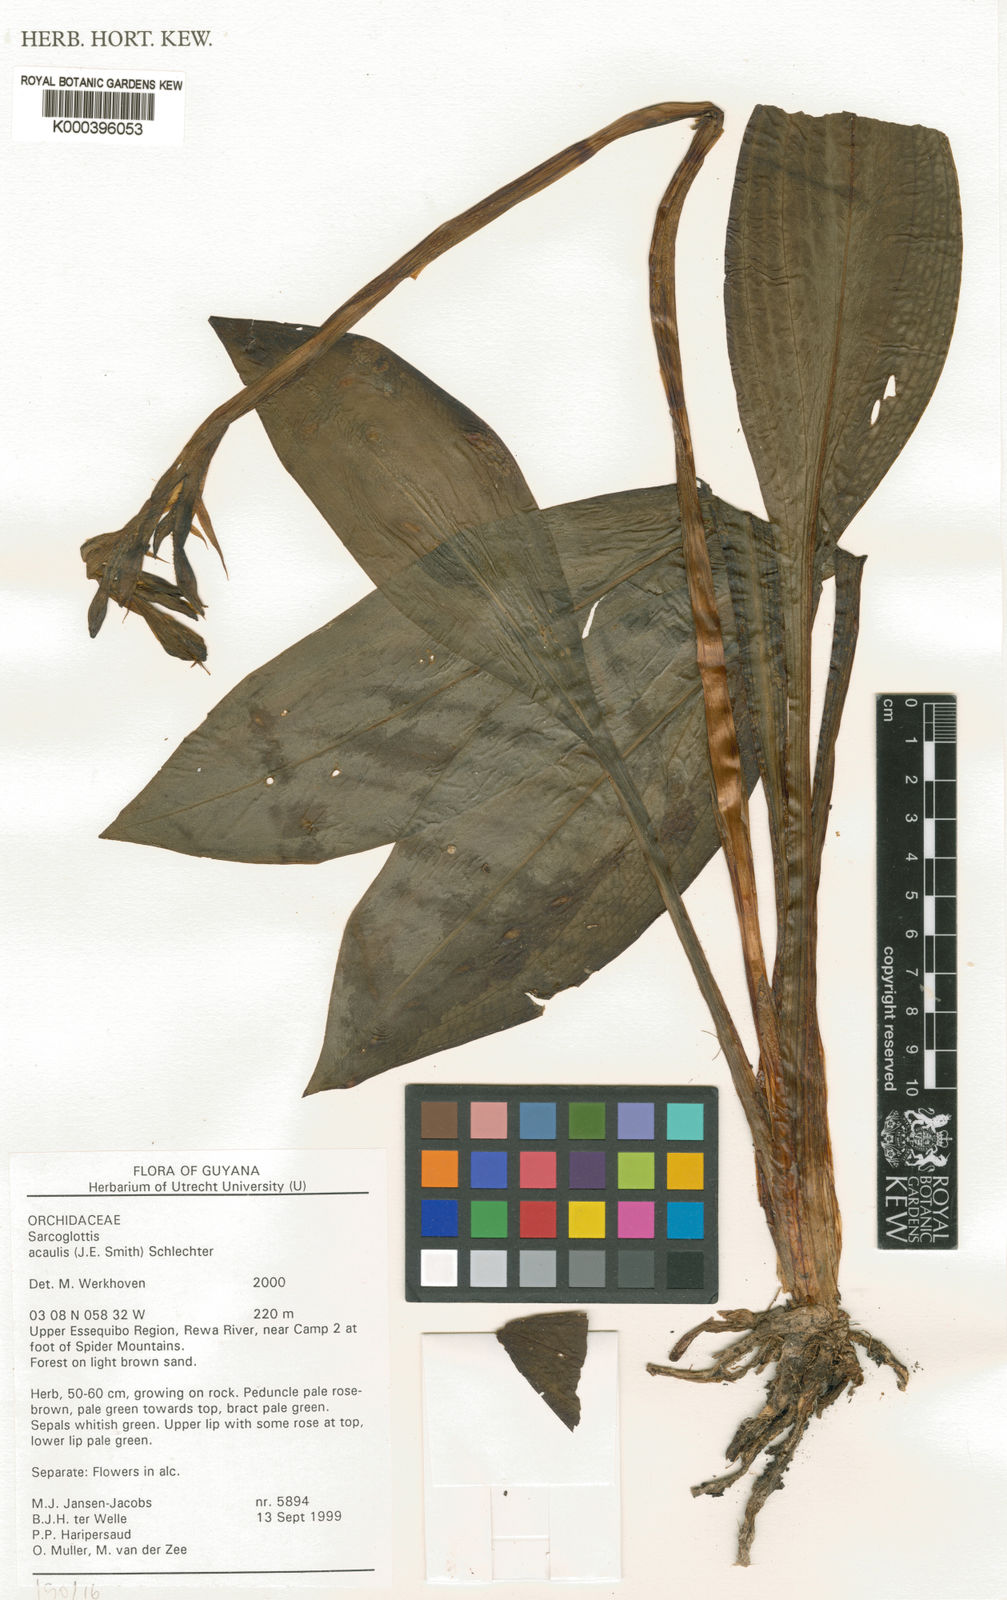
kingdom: Plantae
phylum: Tracheophyta
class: Liliopsida
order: Asparagales
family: Orchidaceae
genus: Sarcoglottis
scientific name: Sarcoglottis acaulis
